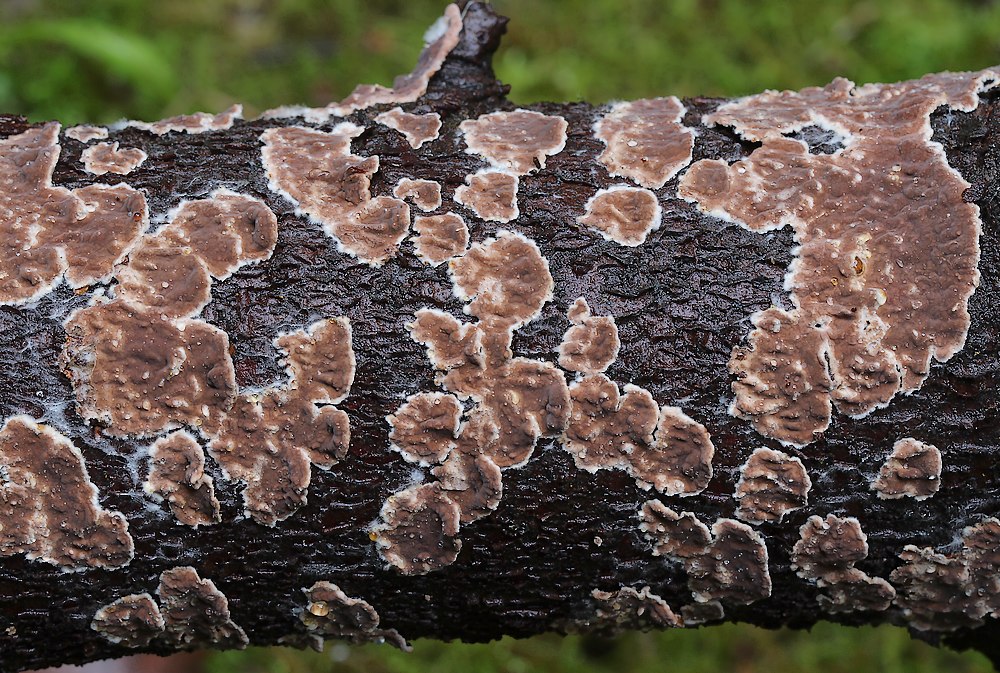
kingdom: Fungi
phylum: Basidiomycota
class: Agaricomycetes
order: Corticiales
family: Corticiaceae
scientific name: Corticiaceae
